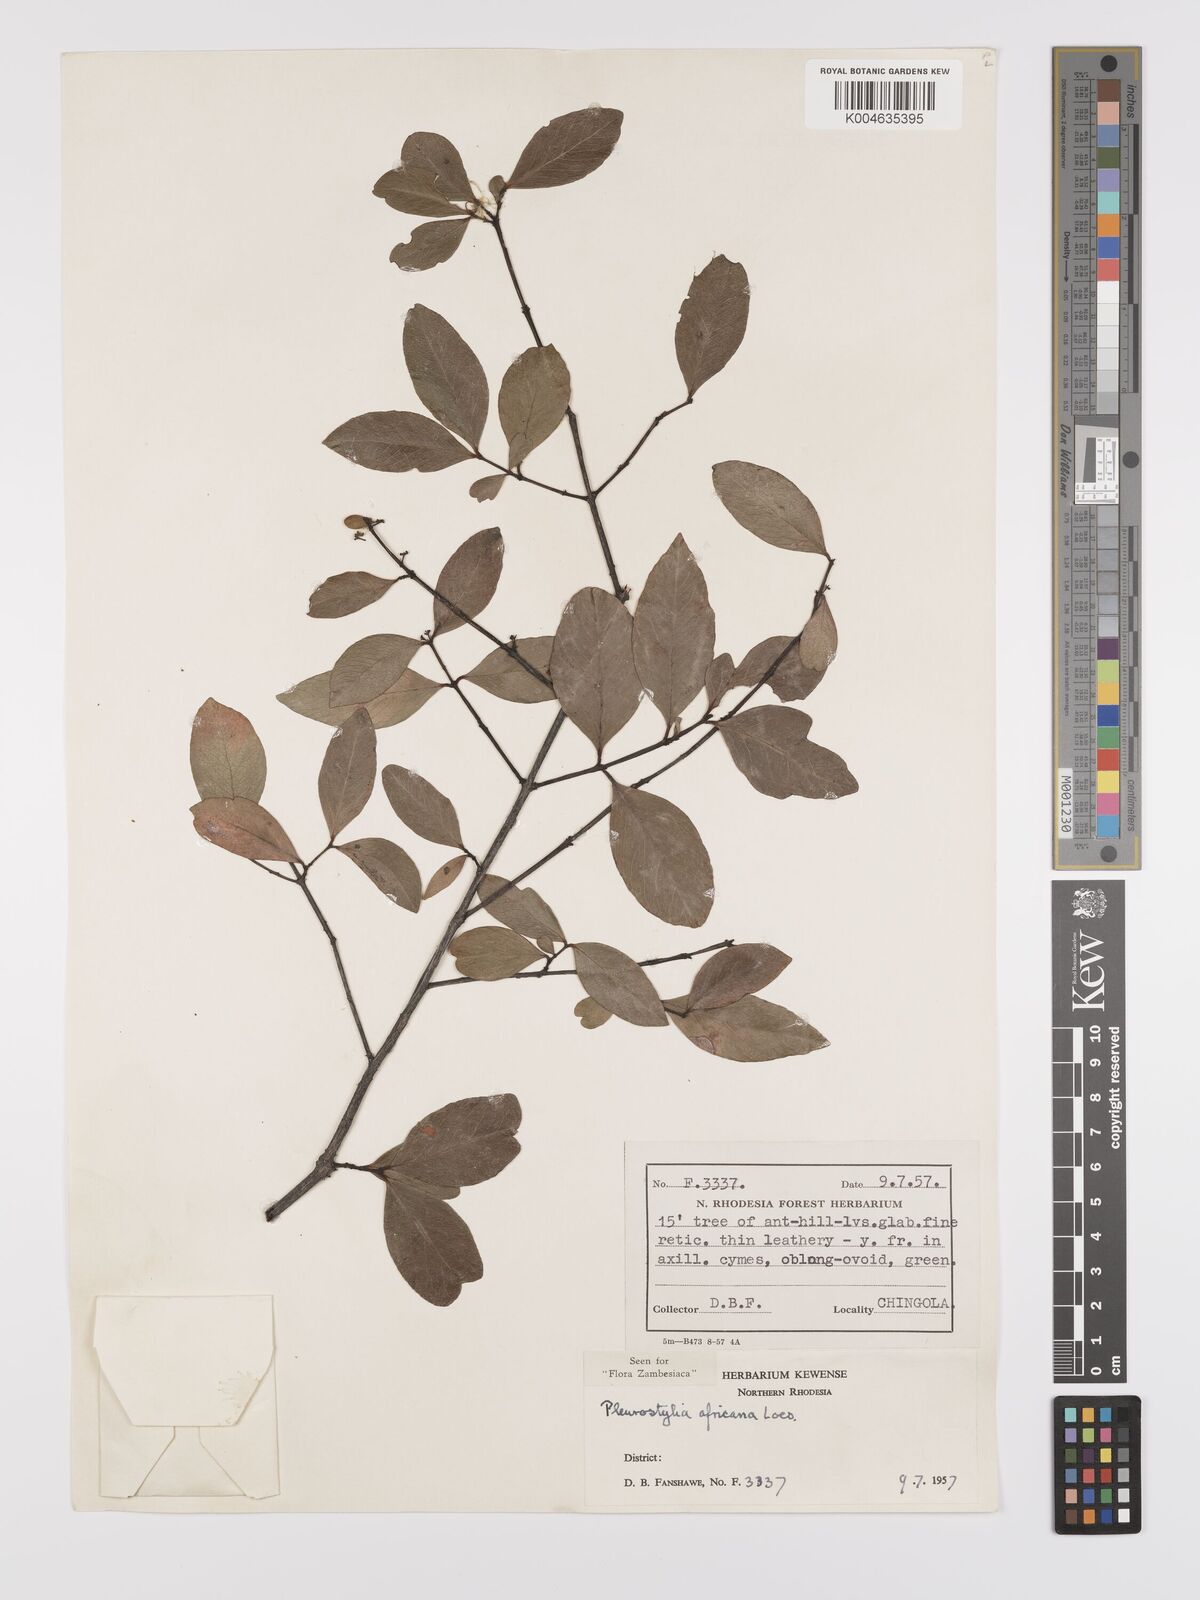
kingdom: Plantae
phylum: Tracheophyta
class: Magnoliopsida
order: Celastrales
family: Celastraceae
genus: Pleurostylia
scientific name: Pleurostylia africana
